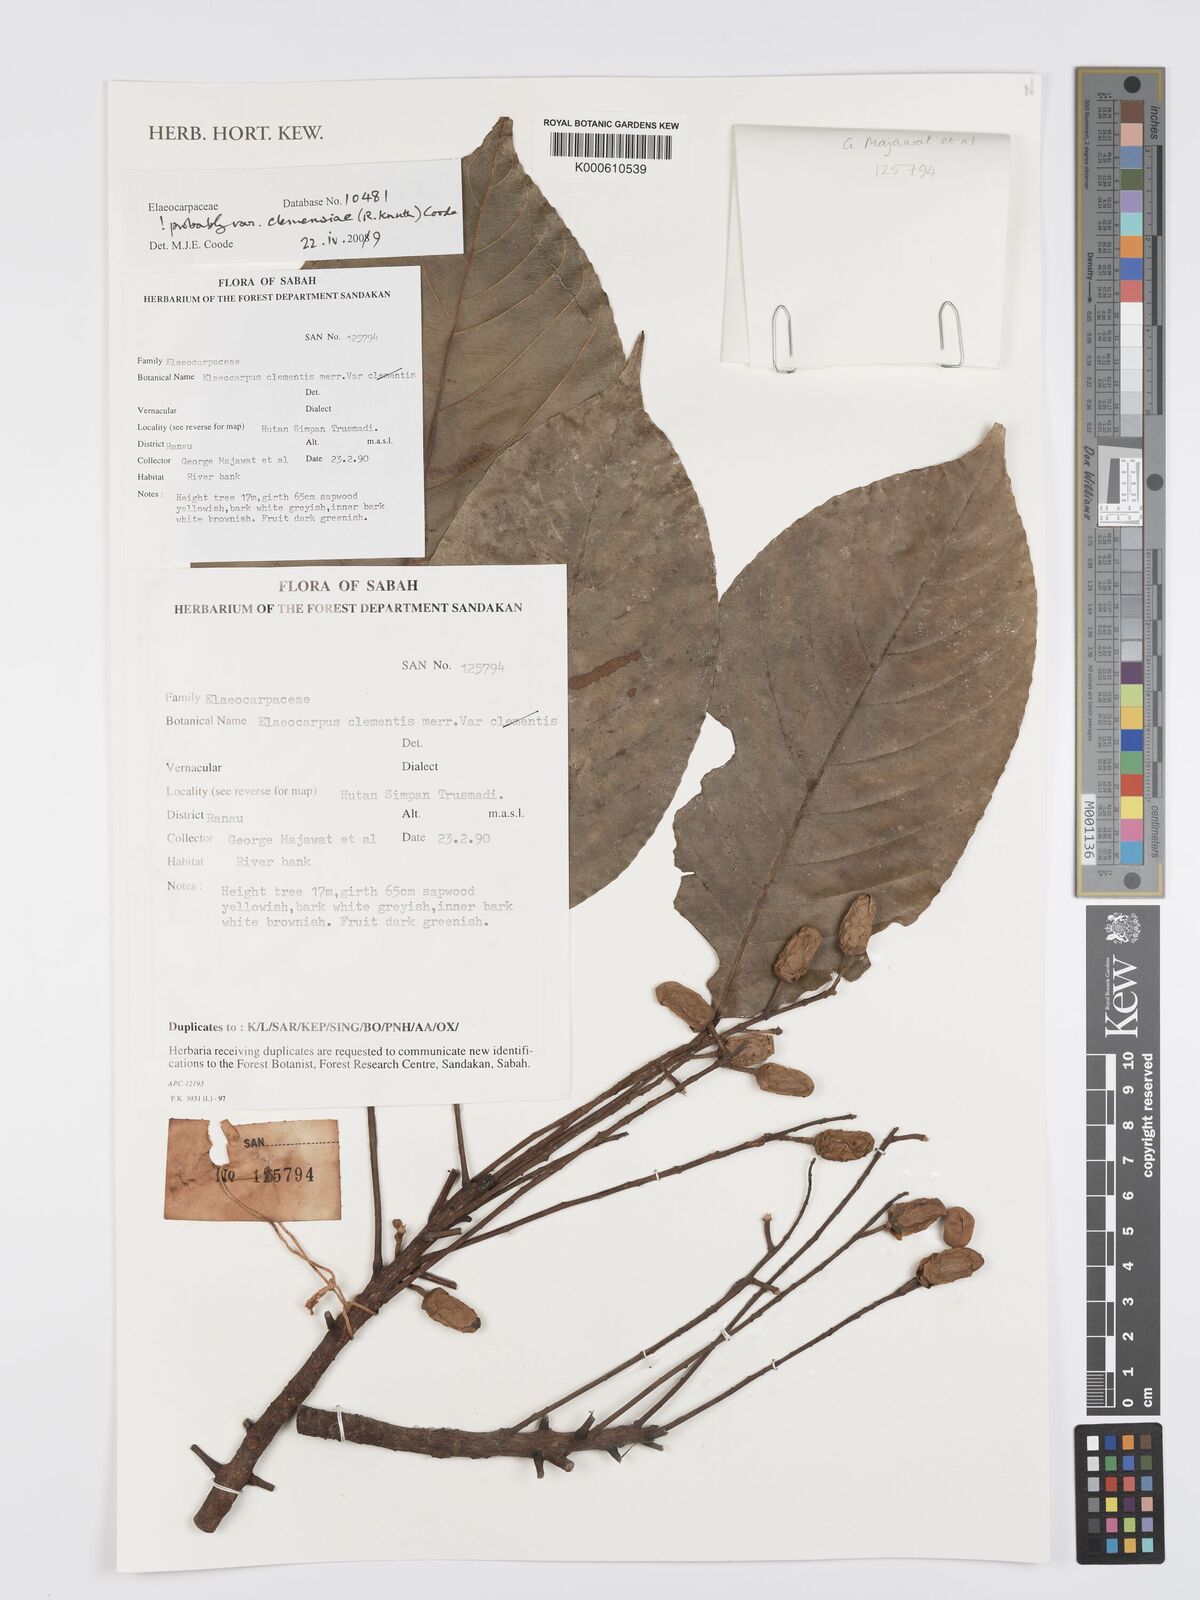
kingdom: Plantae
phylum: Tracheophyta
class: Magnoliopsida
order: Oxalidales
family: Elaeocarpaceae
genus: Elaeocarpus
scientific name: Elaeocarpus
